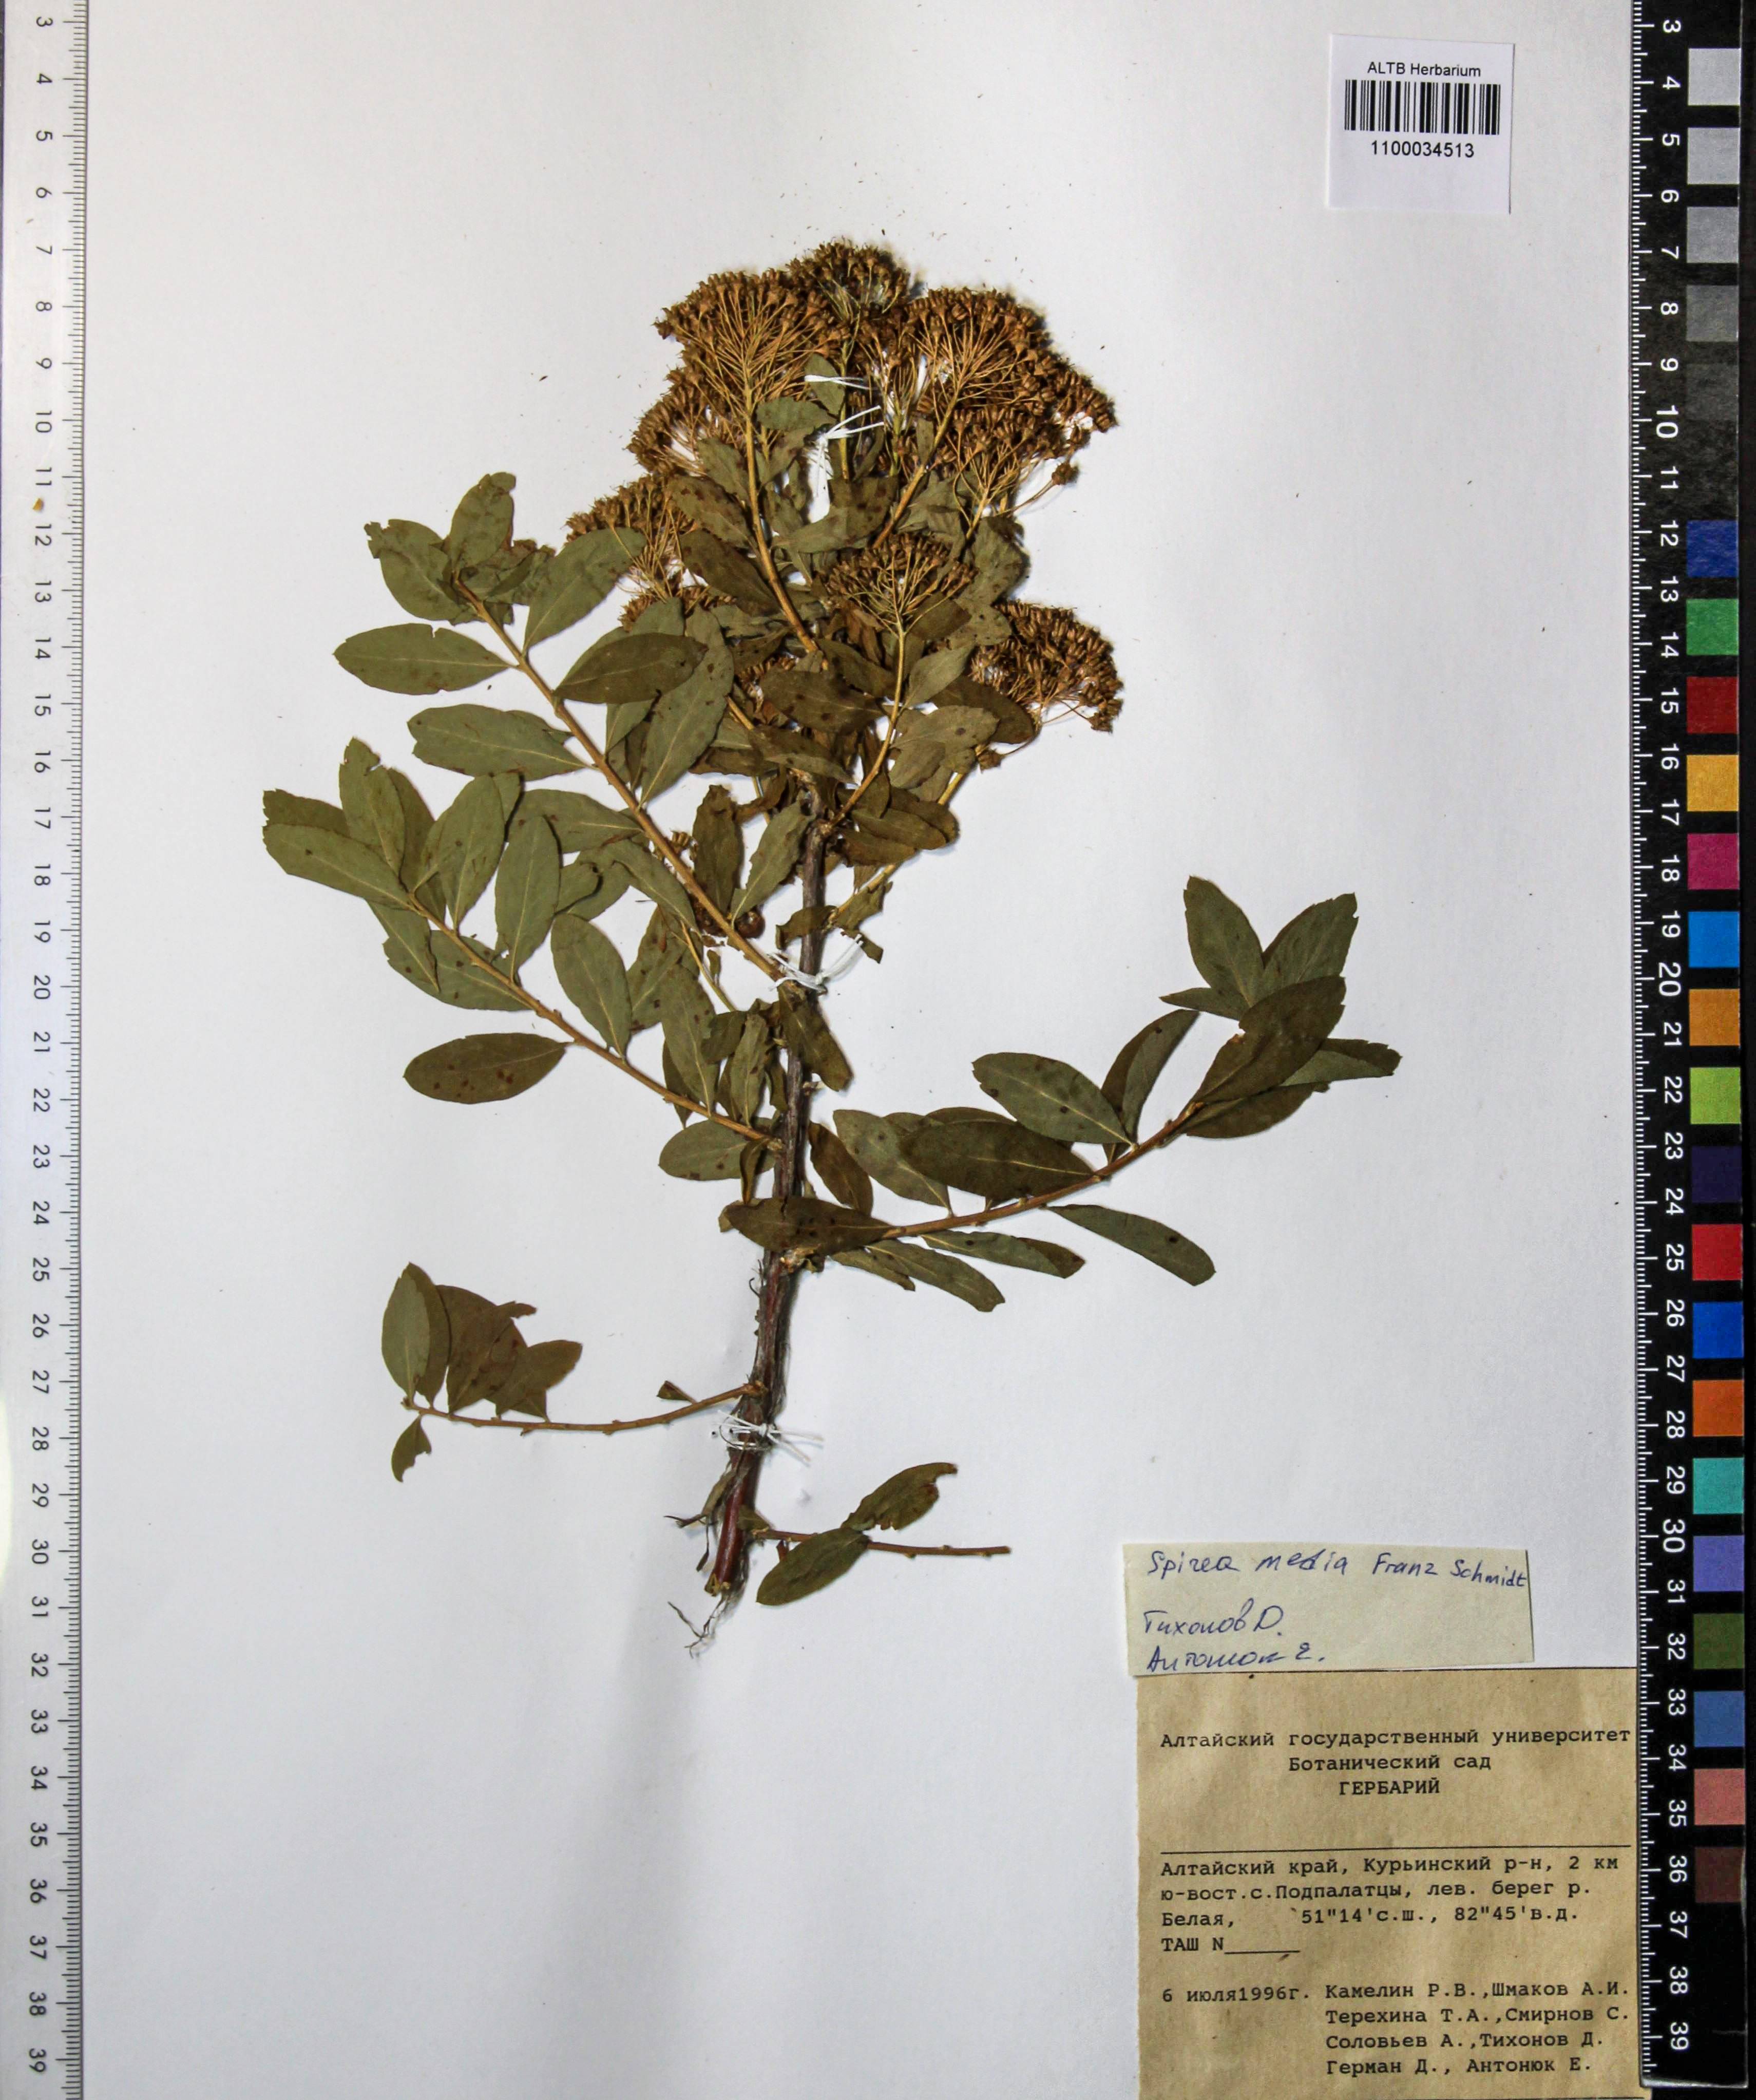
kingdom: Plantae
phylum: Tracheophyta
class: Magnoliopsida
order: Rosales
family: Rosaceae
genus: Spiraea
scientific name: Spiraea media
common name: Russian spiraea
